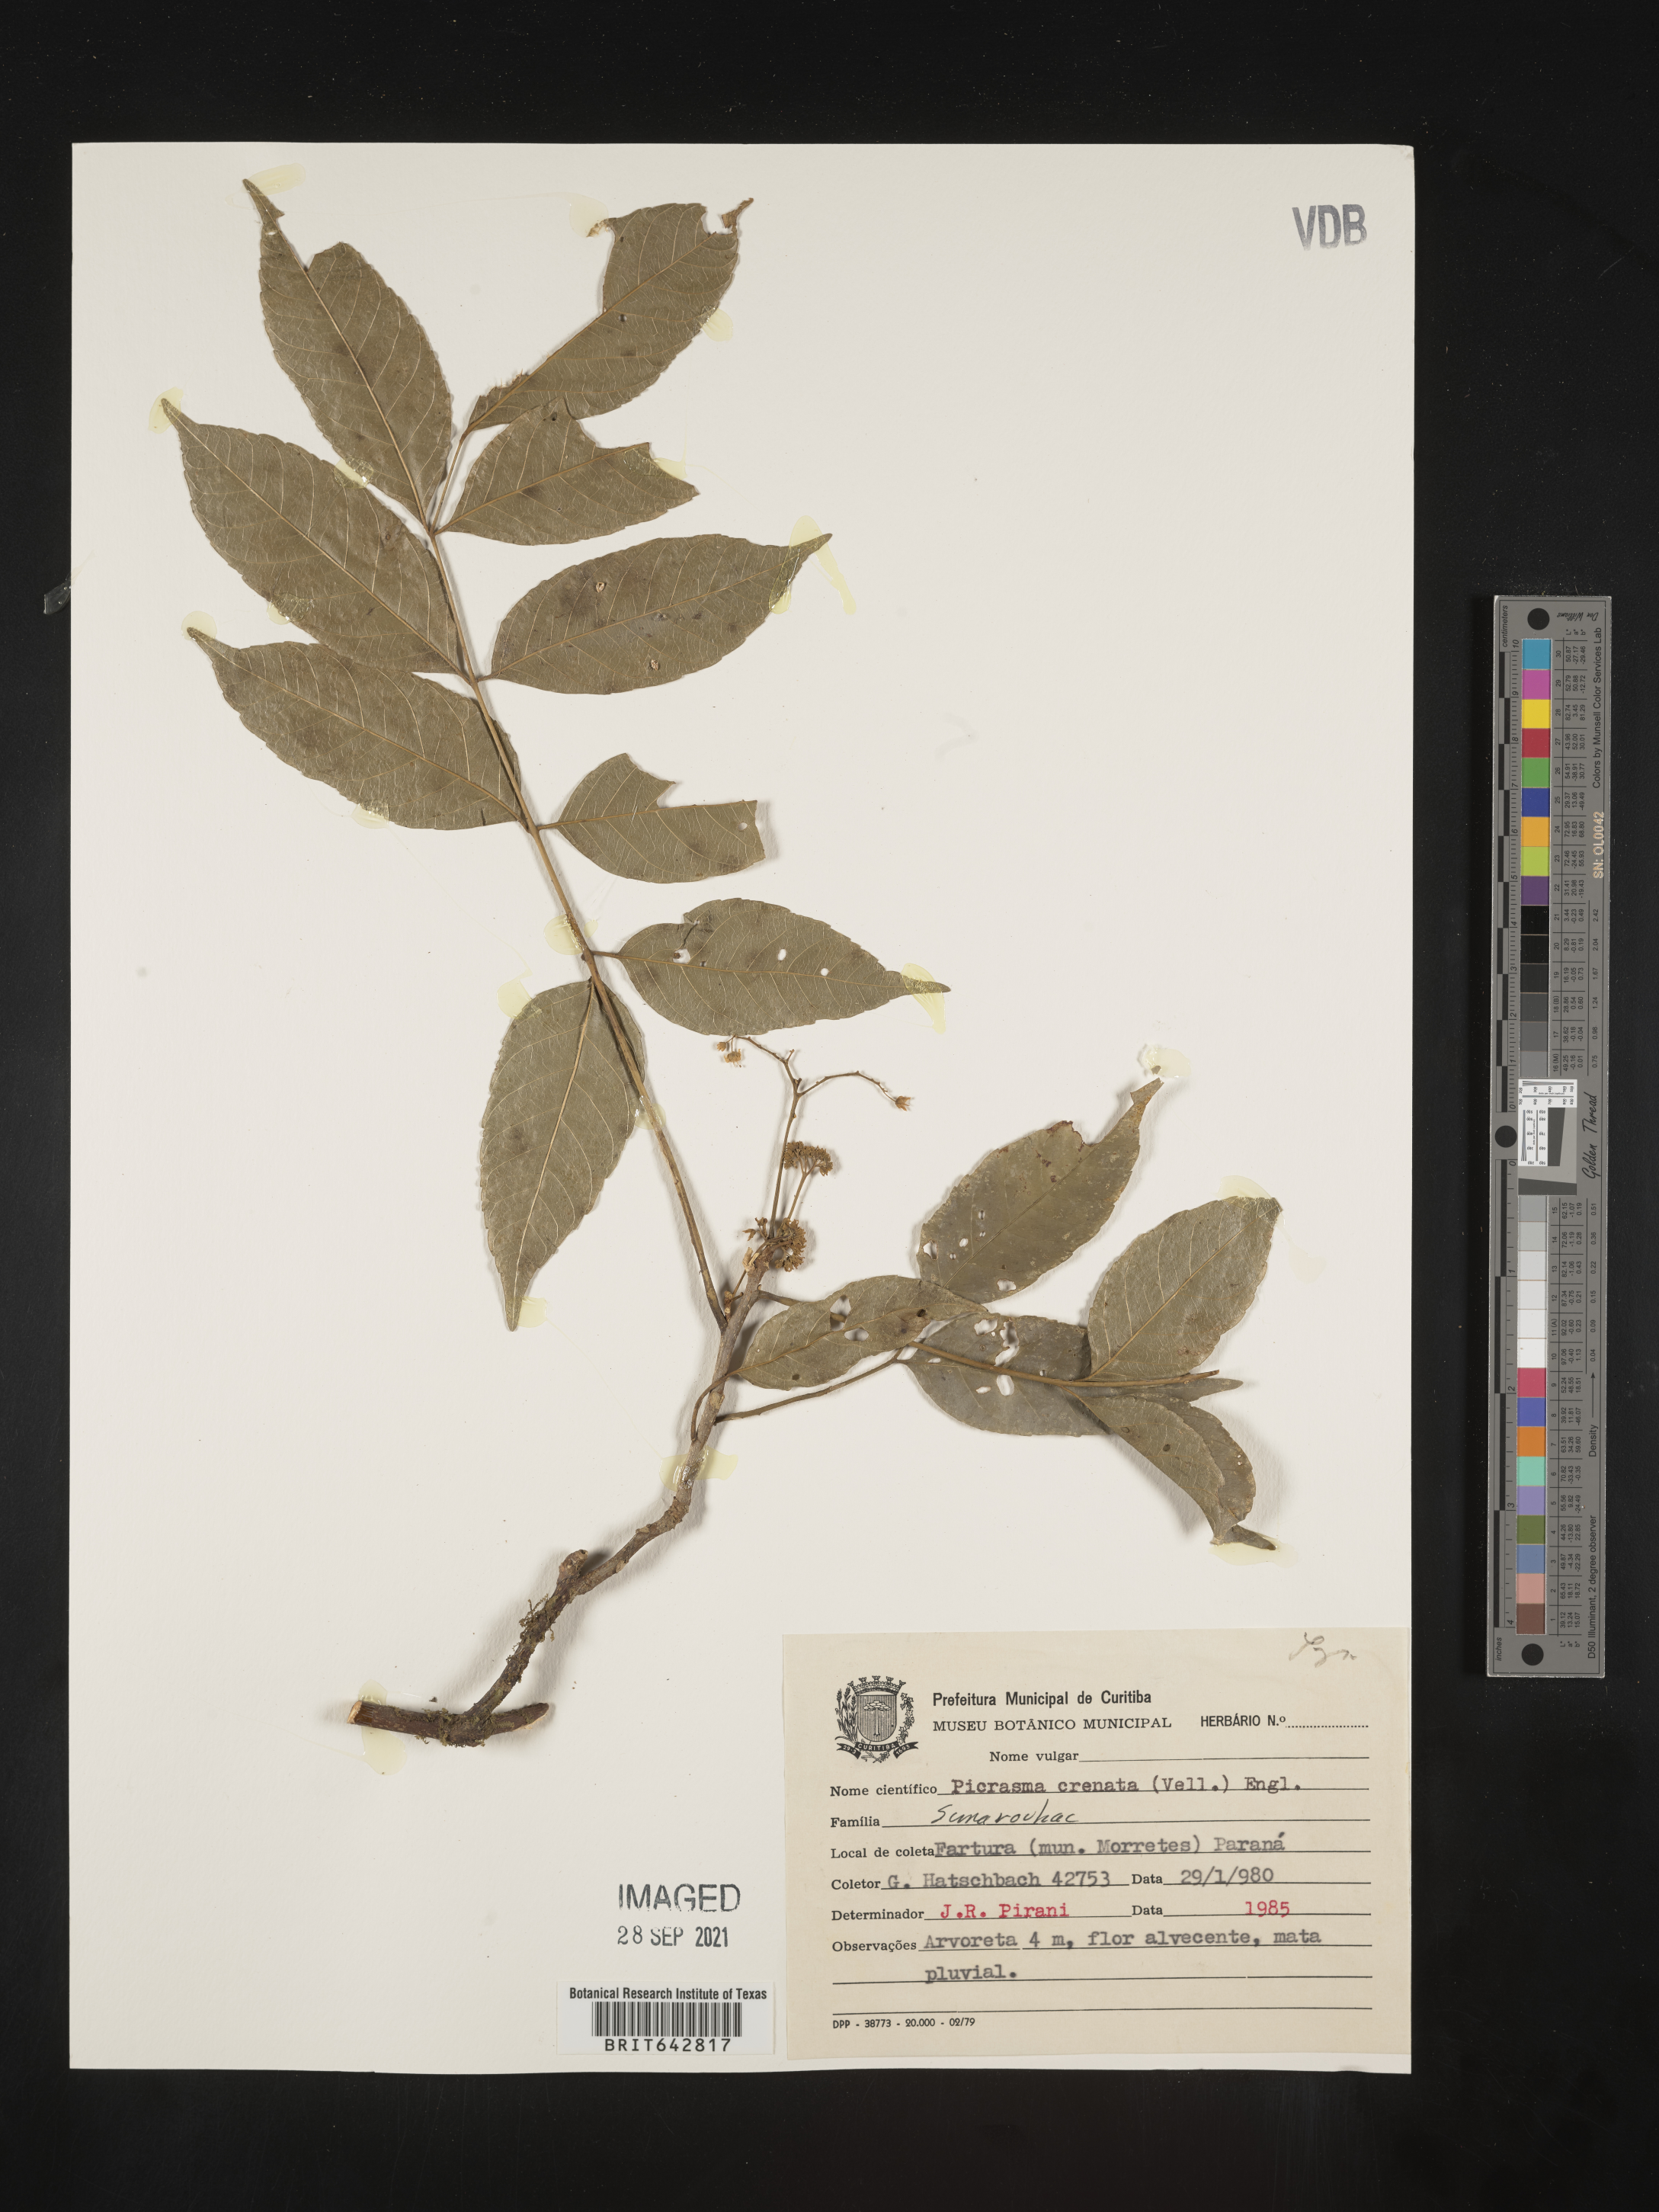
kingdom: Plantae
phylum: Tracheophyta
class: Magnoliopsida
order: Sapindales
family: Simaroubaceae
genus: Picrasma
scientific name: Picrasma
